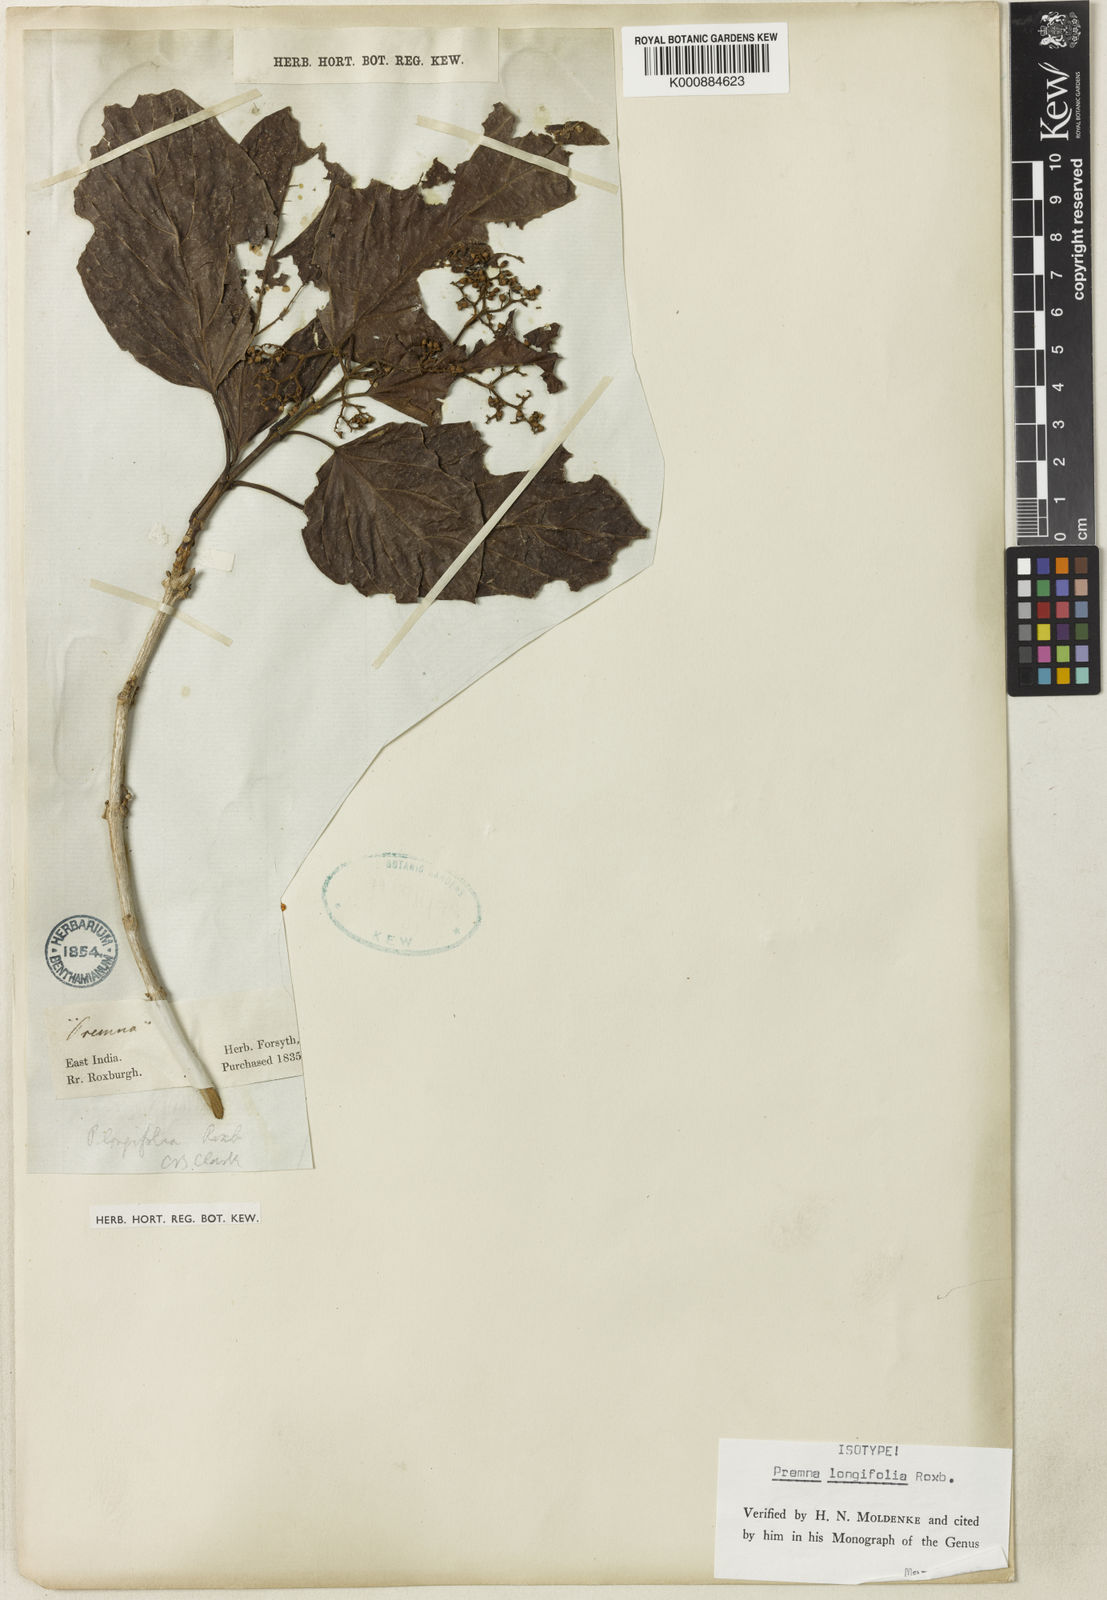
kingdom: Plantae
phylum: Tracheophyta
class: Magnoliopsida
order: Lamiales
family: Lamiaceae
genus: Premna
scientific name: Premna khasiana
